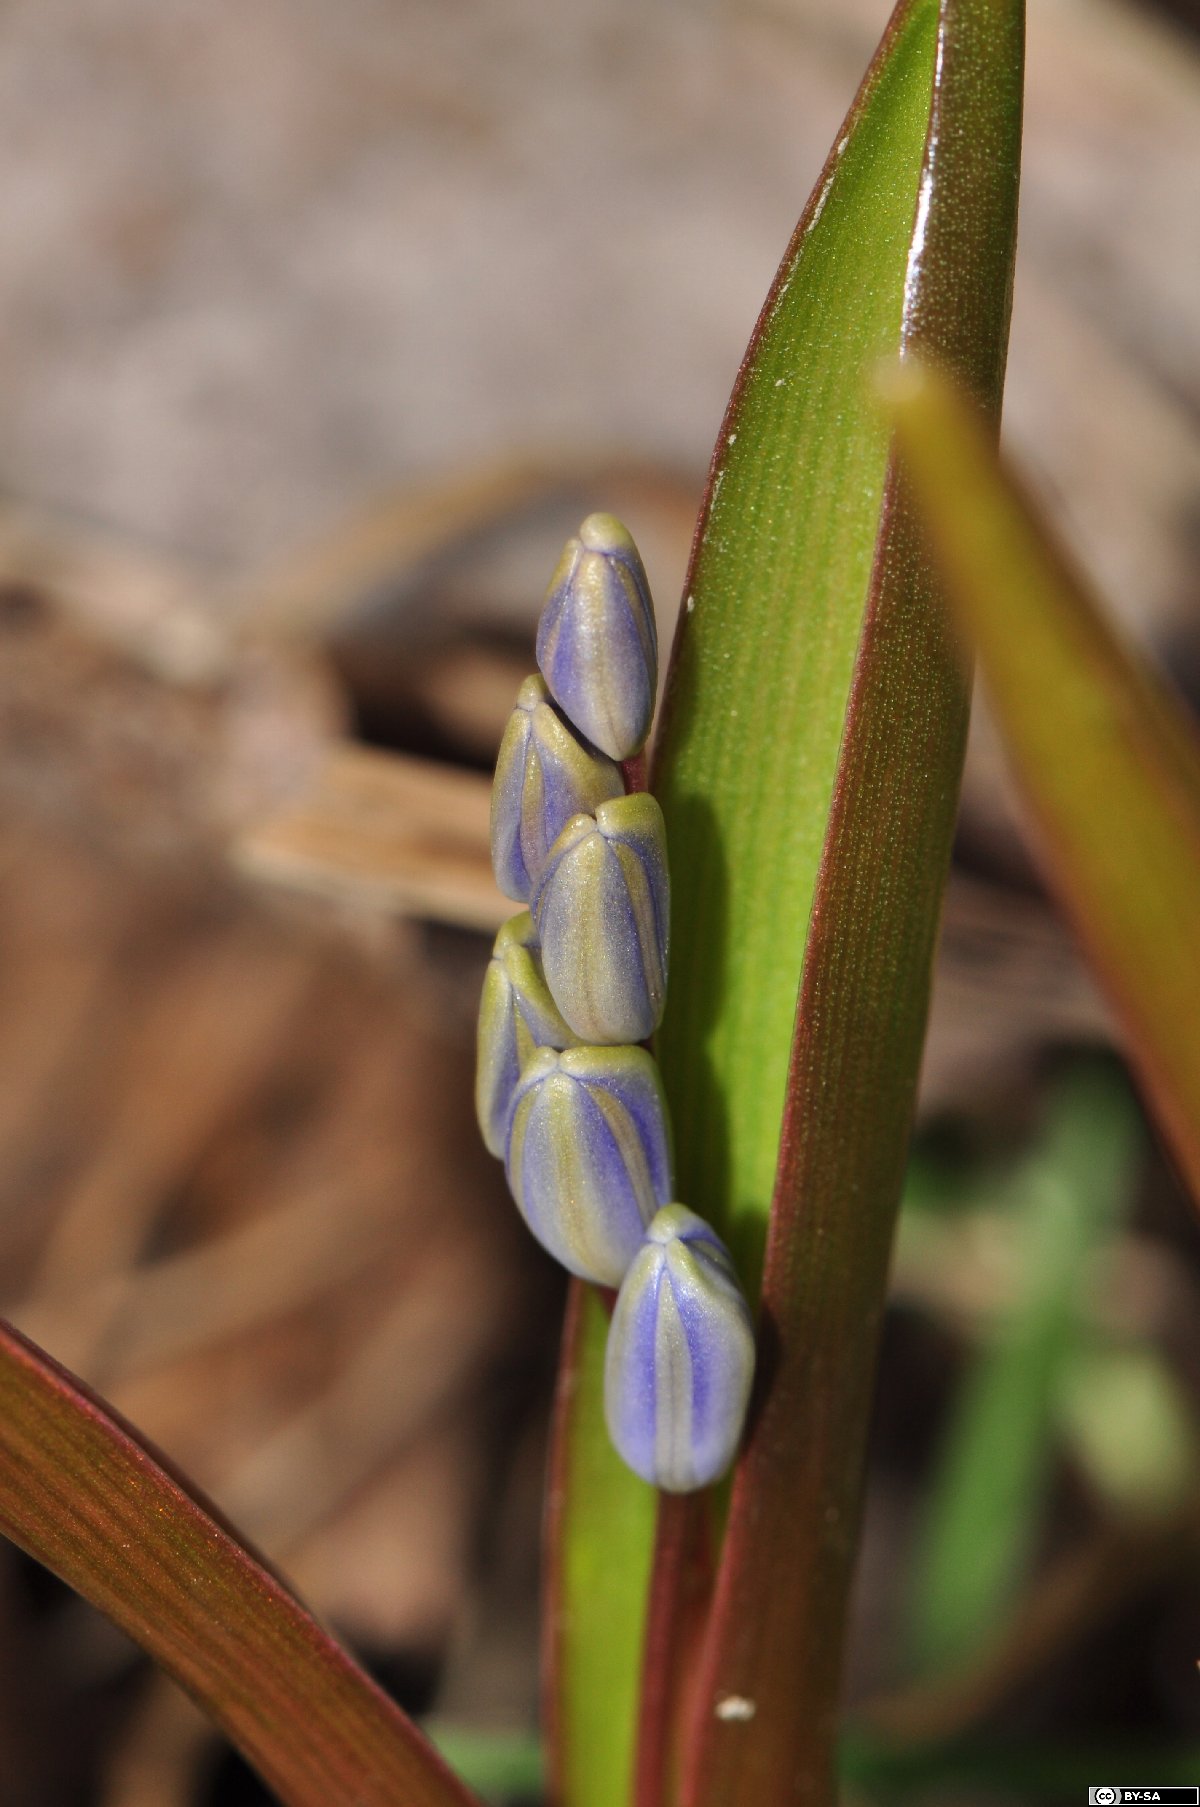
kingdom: Plantae
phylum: Tracheophyta
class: Liliopsida
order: Asparagales
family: Asparagaceae
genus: Scilla
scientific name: Scilla vindobonensis
